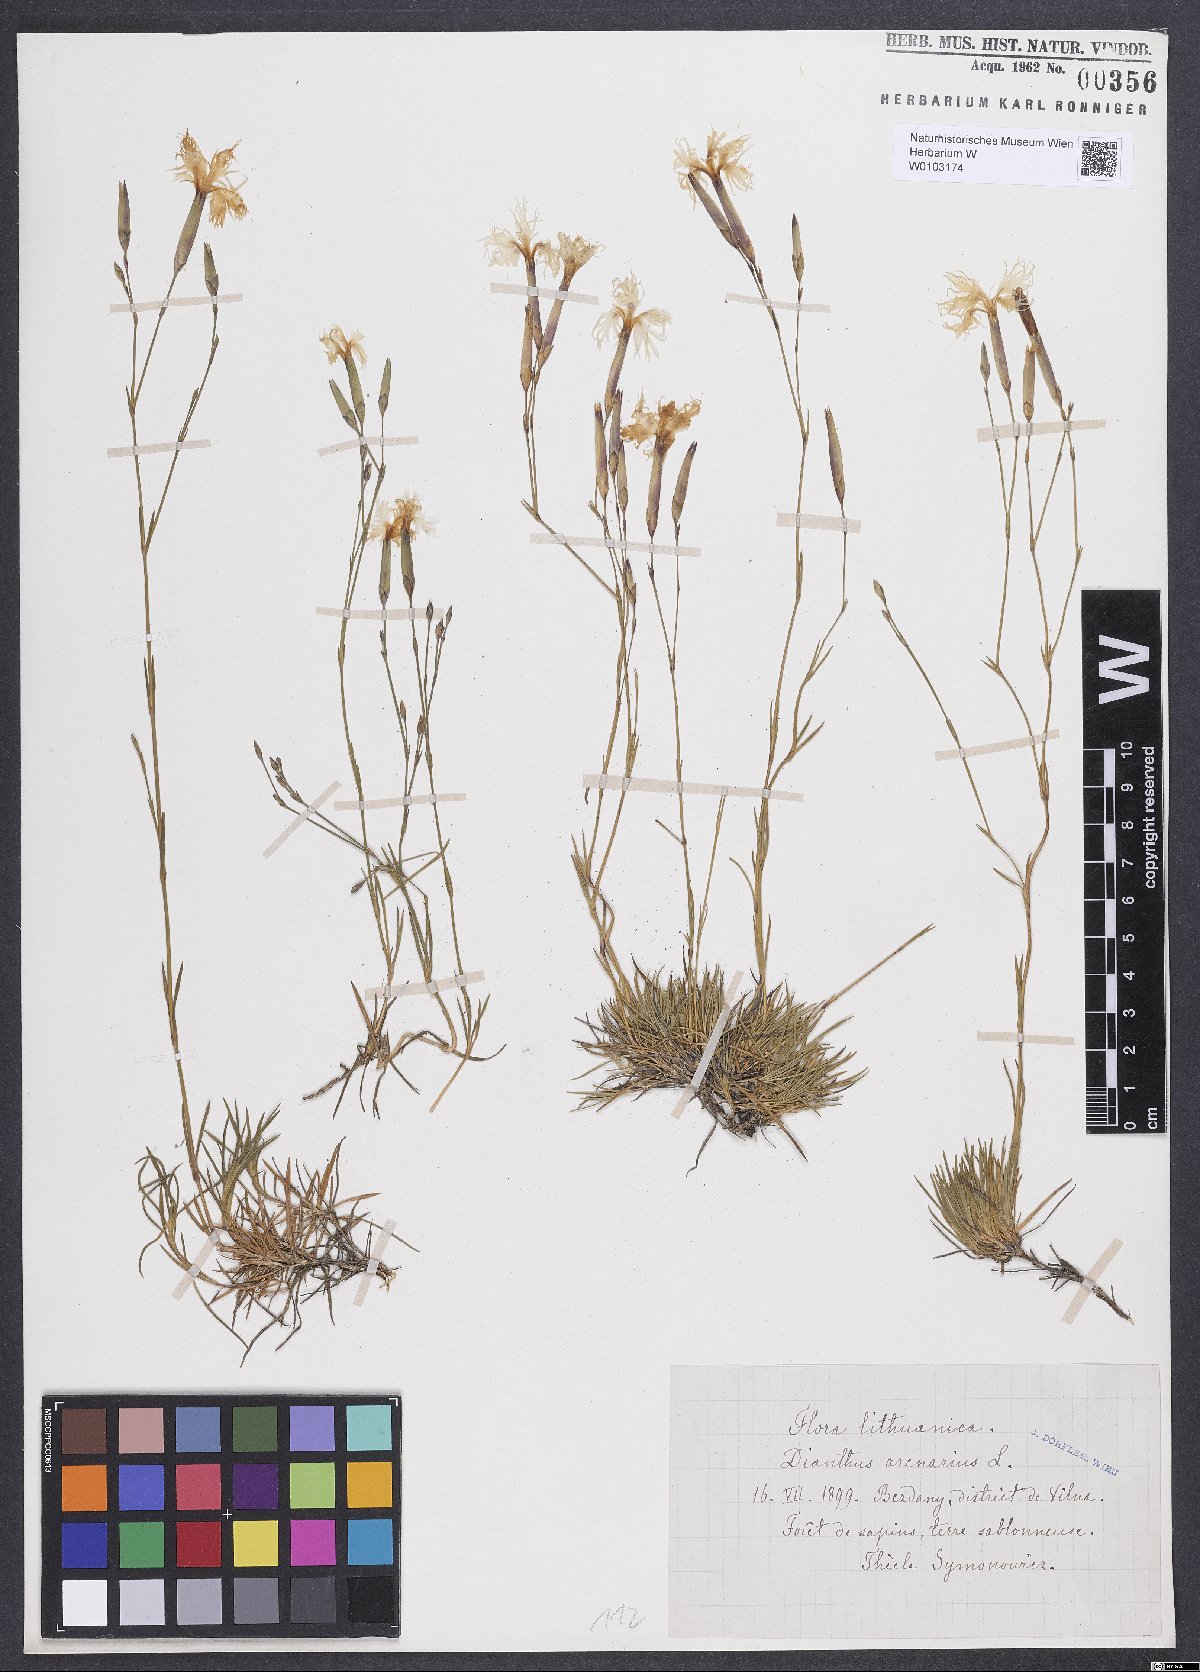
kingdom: Plantae
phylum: Tracheophyta
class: Magnoliopsida
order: Caryophyllales
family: Caryophyllaceae
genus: Dianthus
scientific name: Dianthus arenarius
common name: Stone pink
